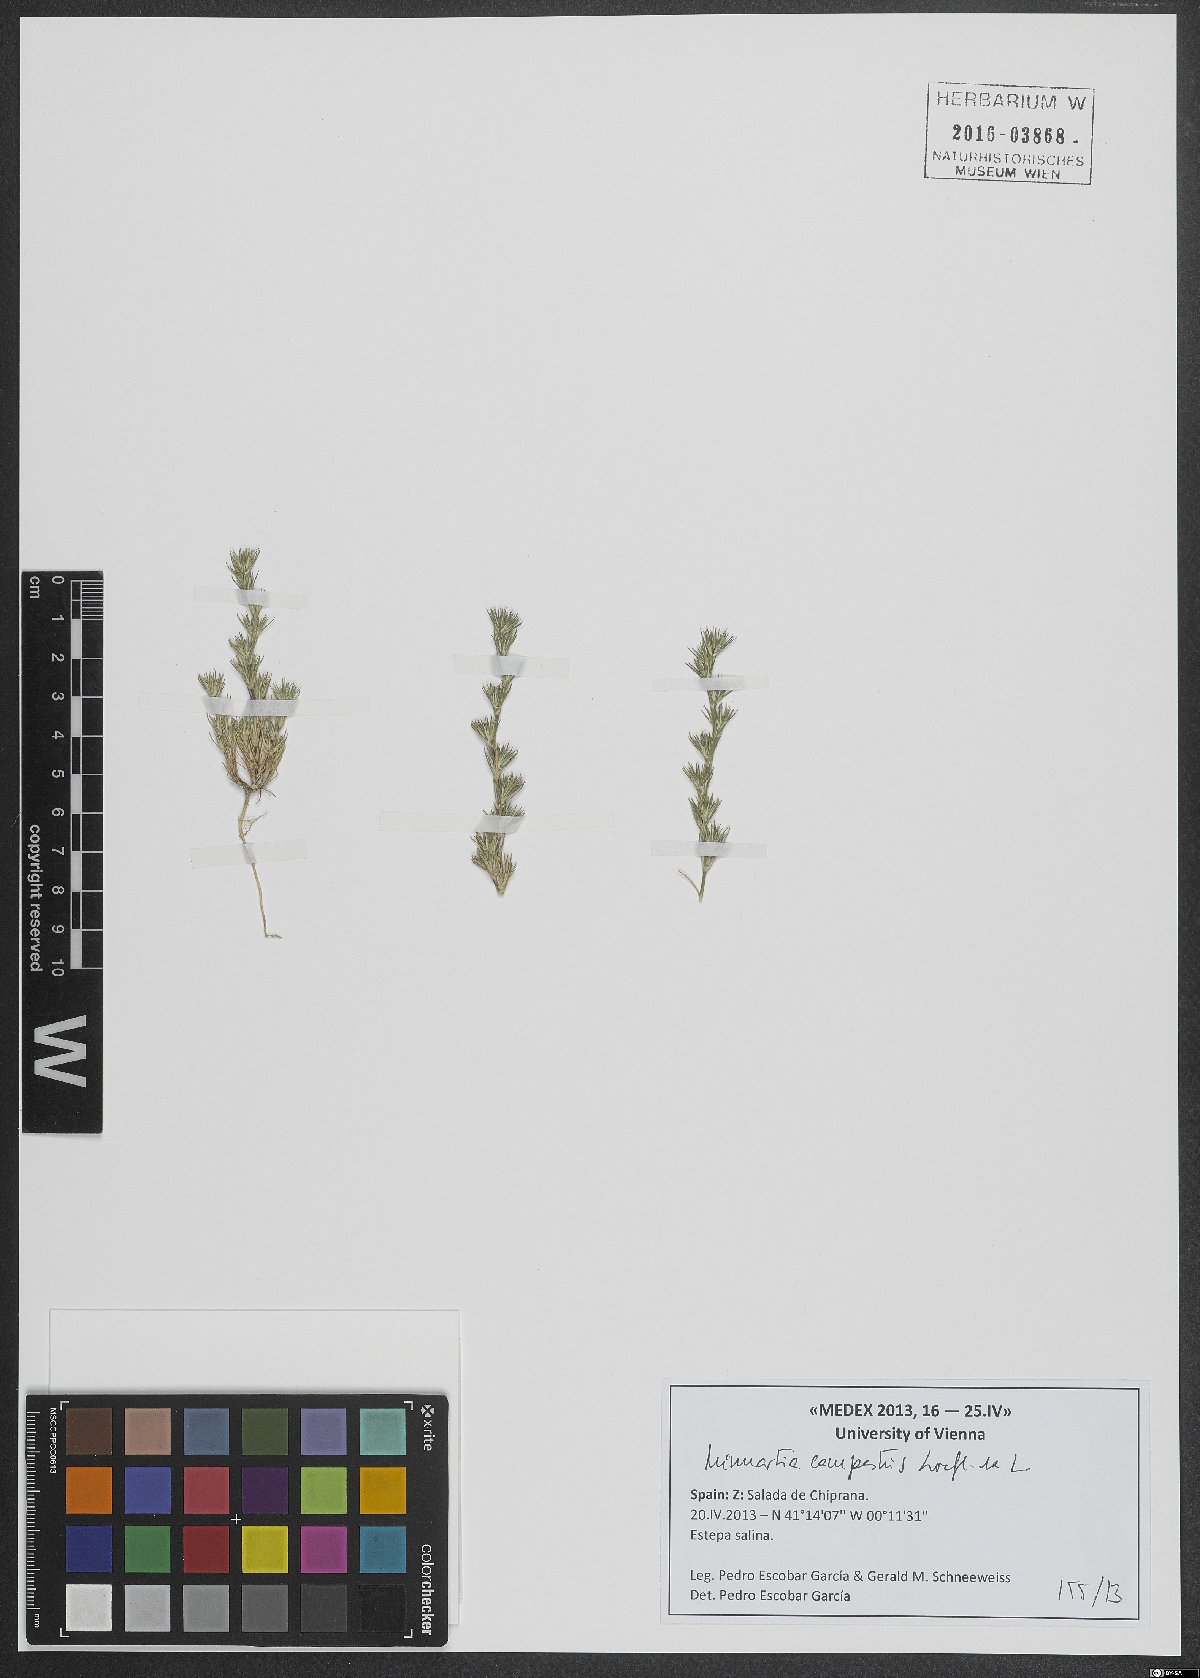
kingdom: Plantae
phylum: Tracheophyta
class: Magnoliopsida
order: Caryophyllales
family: Caryophyllaceae
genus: Minuartia
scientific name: Minuartia campestris
